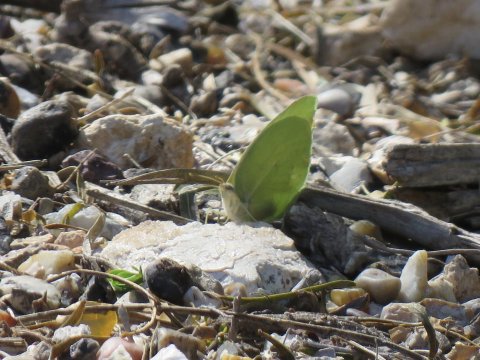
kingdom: Animalia
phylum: Arthropoda
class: Insecta
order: Lepidoptera
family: Pieridae
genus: Kricogonia
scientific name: Kricogonia lyside
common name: Lyside Sulphur
